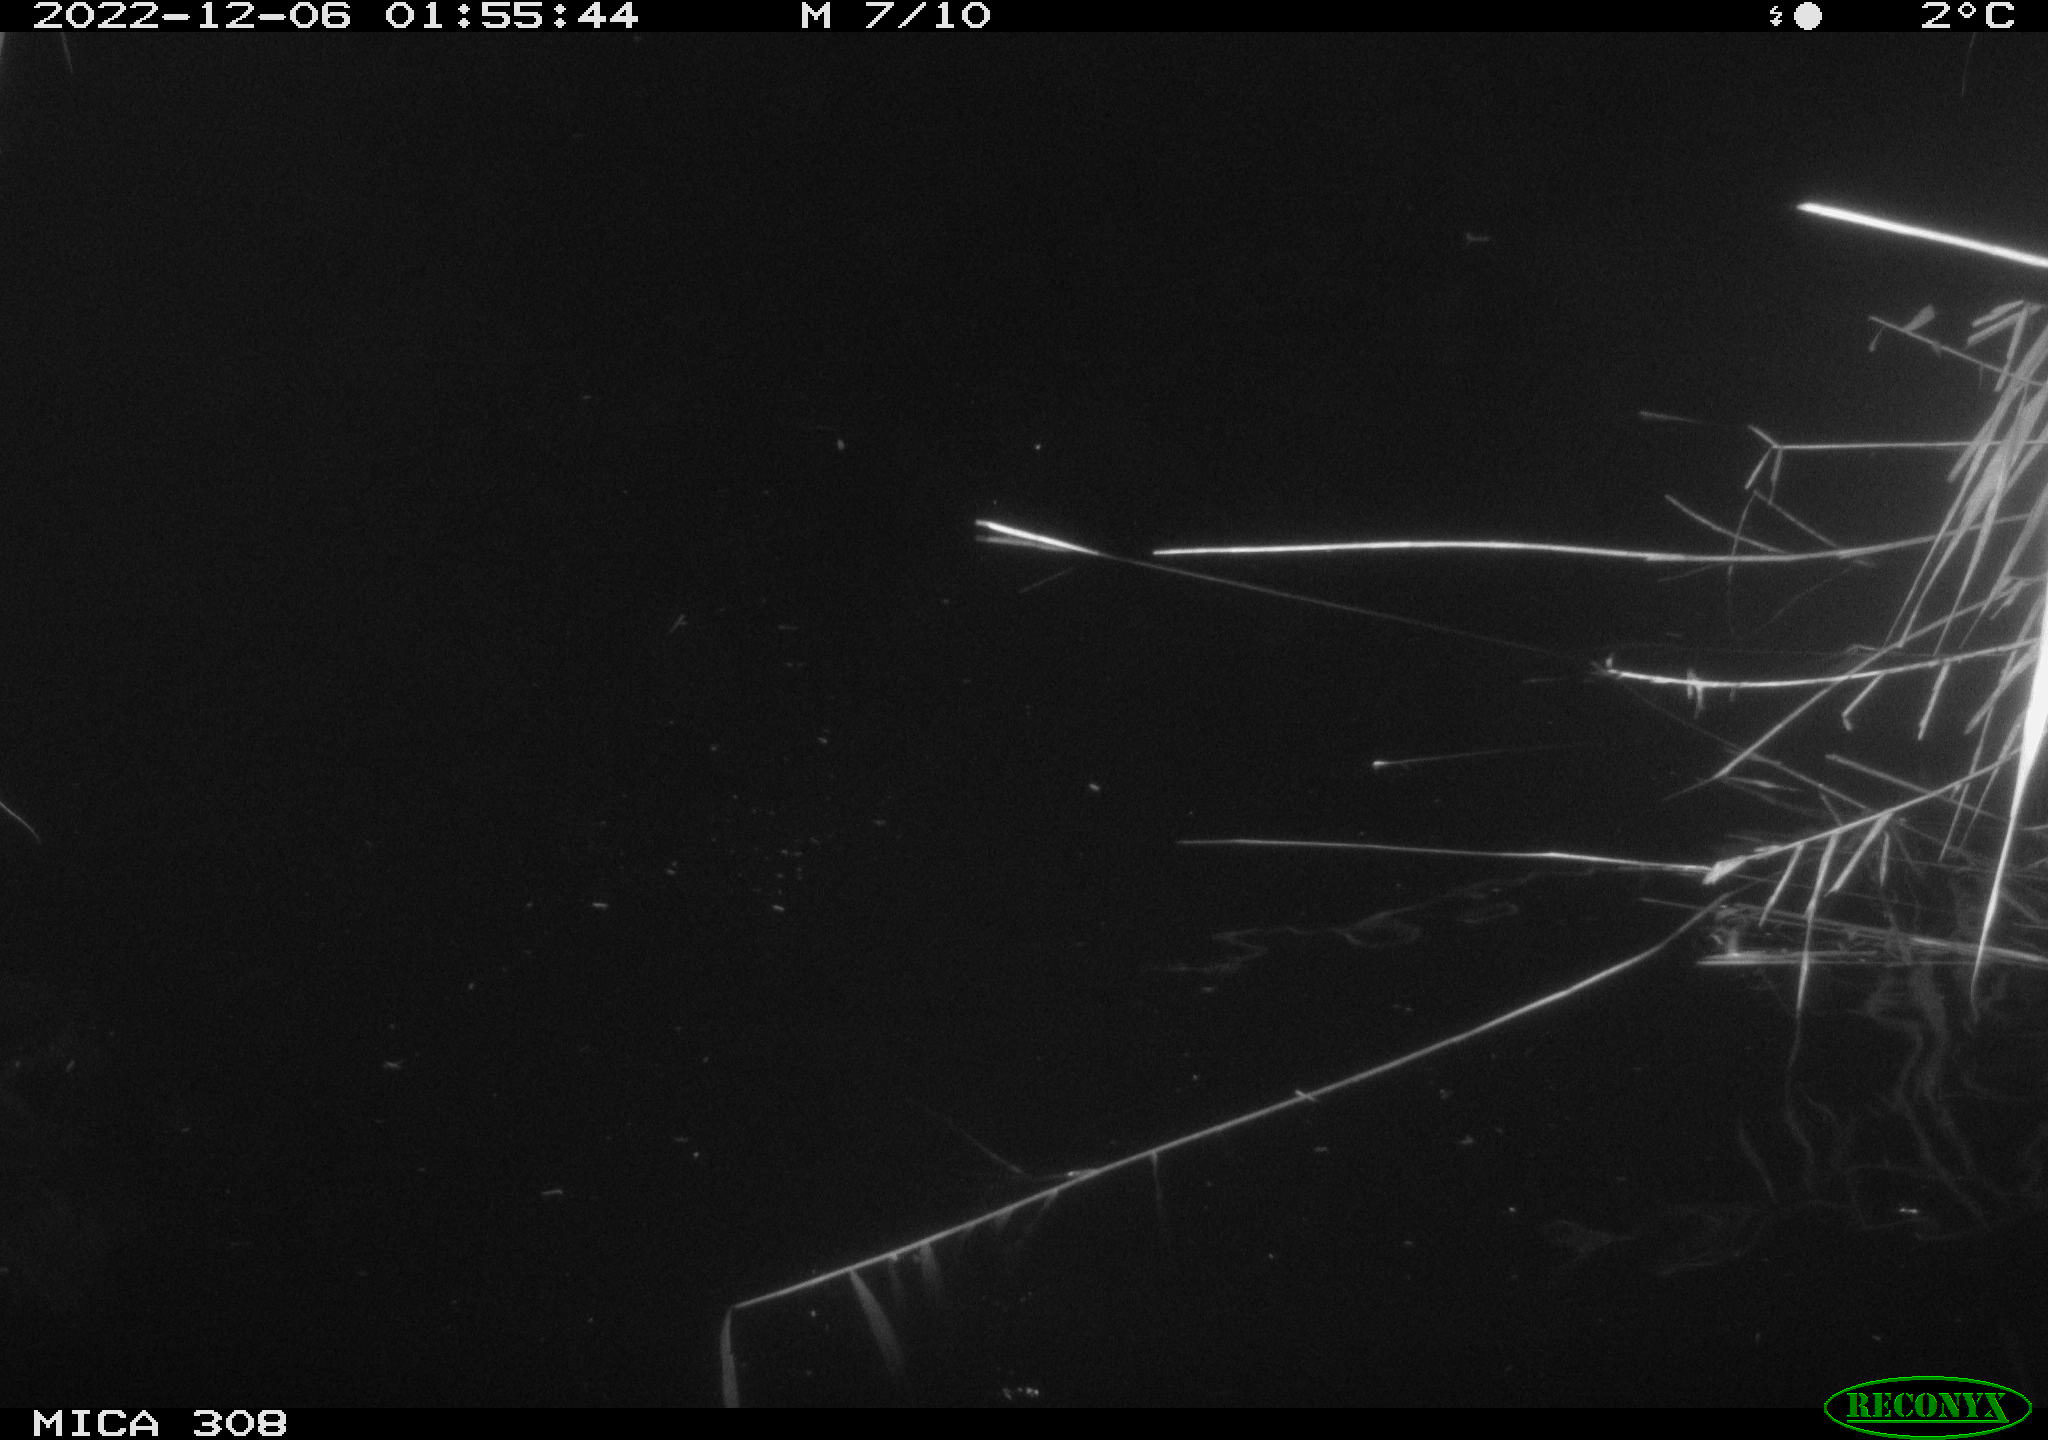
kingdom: Animalia
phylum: Chordata
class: Mammalia
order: Rodentia
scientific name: Rodentia
